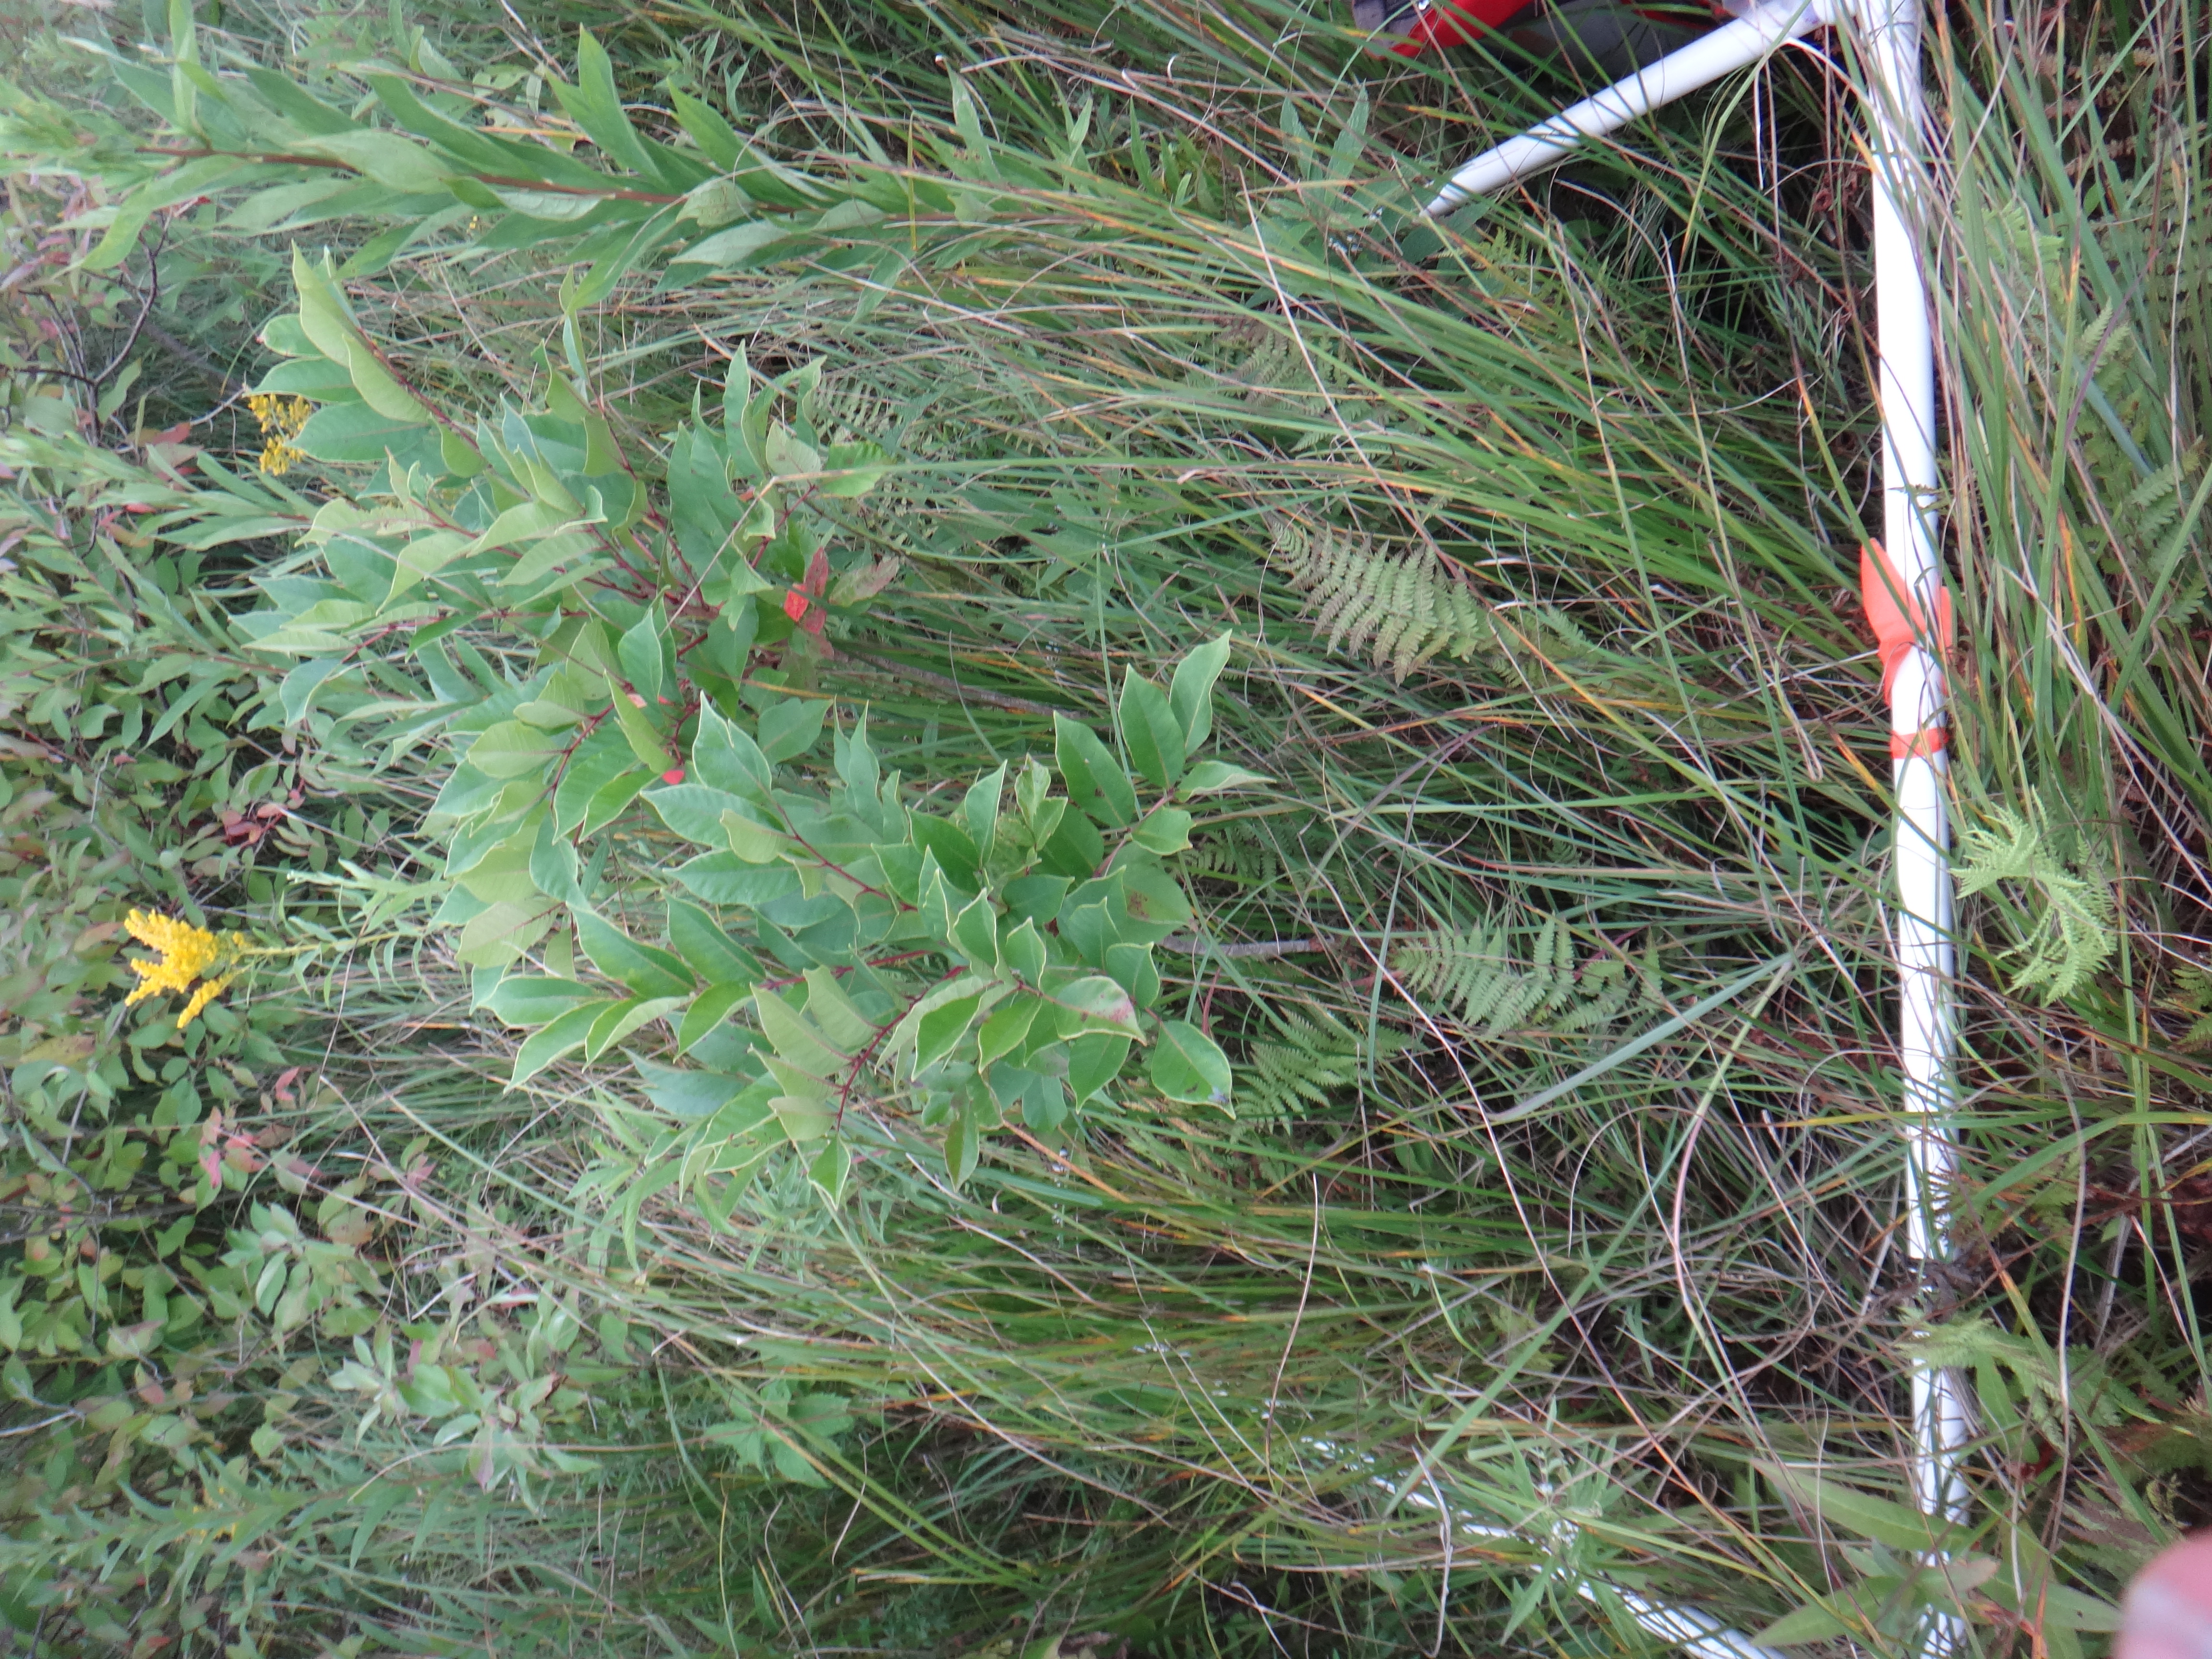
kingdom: Plantae
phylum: Tracheophyta
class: Magnoliopsida
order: Lamiales
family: Lamiaceae
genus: Lycopus
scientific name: Lycopus americanus
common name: American bugleweed
